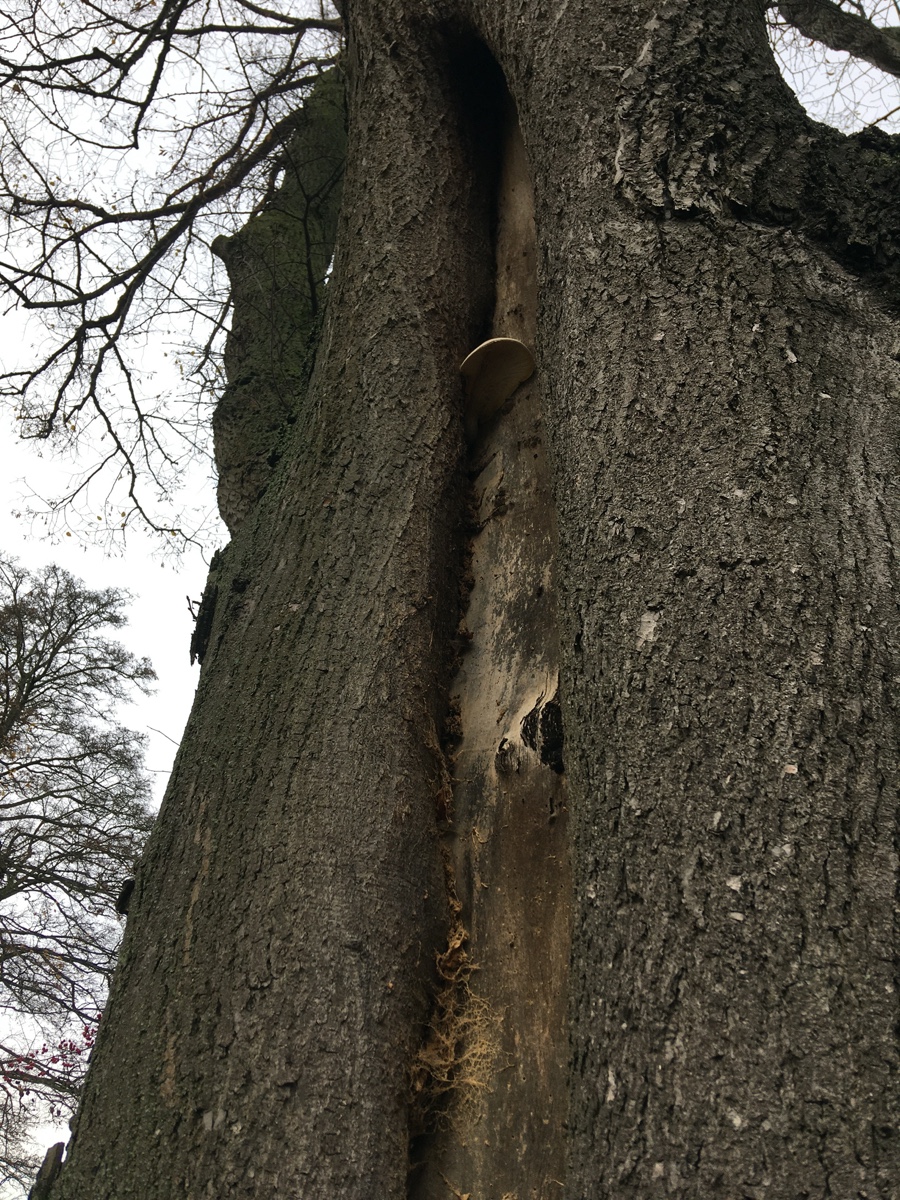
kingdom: Fungi
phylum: Basidiomycota
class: Agaricomycetes
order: Agaricales
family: Pleurotaceae
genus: Pleurotus
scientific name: Pleurotus dryinus
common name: korkagtig østershat
